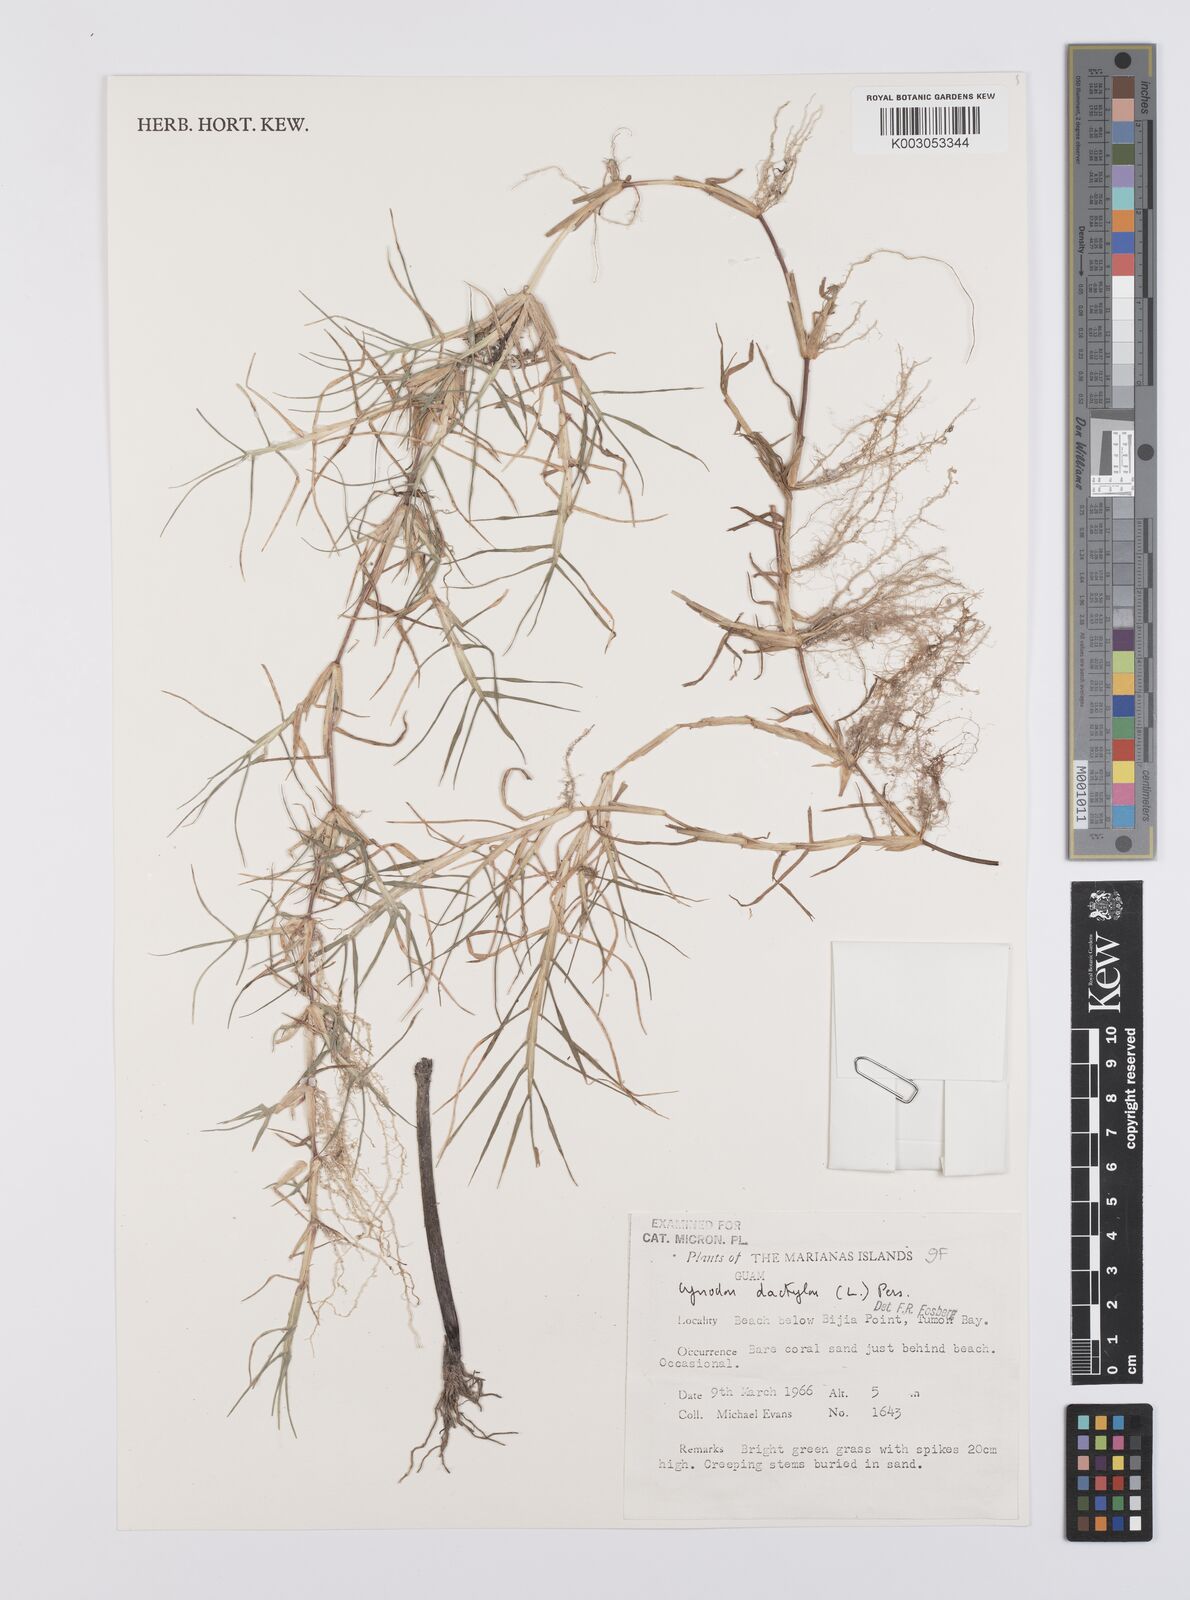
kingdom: Plantae
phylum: Tracheophyta
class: Liliopsida
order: Poales
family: Poaceae
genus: Cynodon
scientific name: Cynodon dactylon
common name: Bermuda grass
